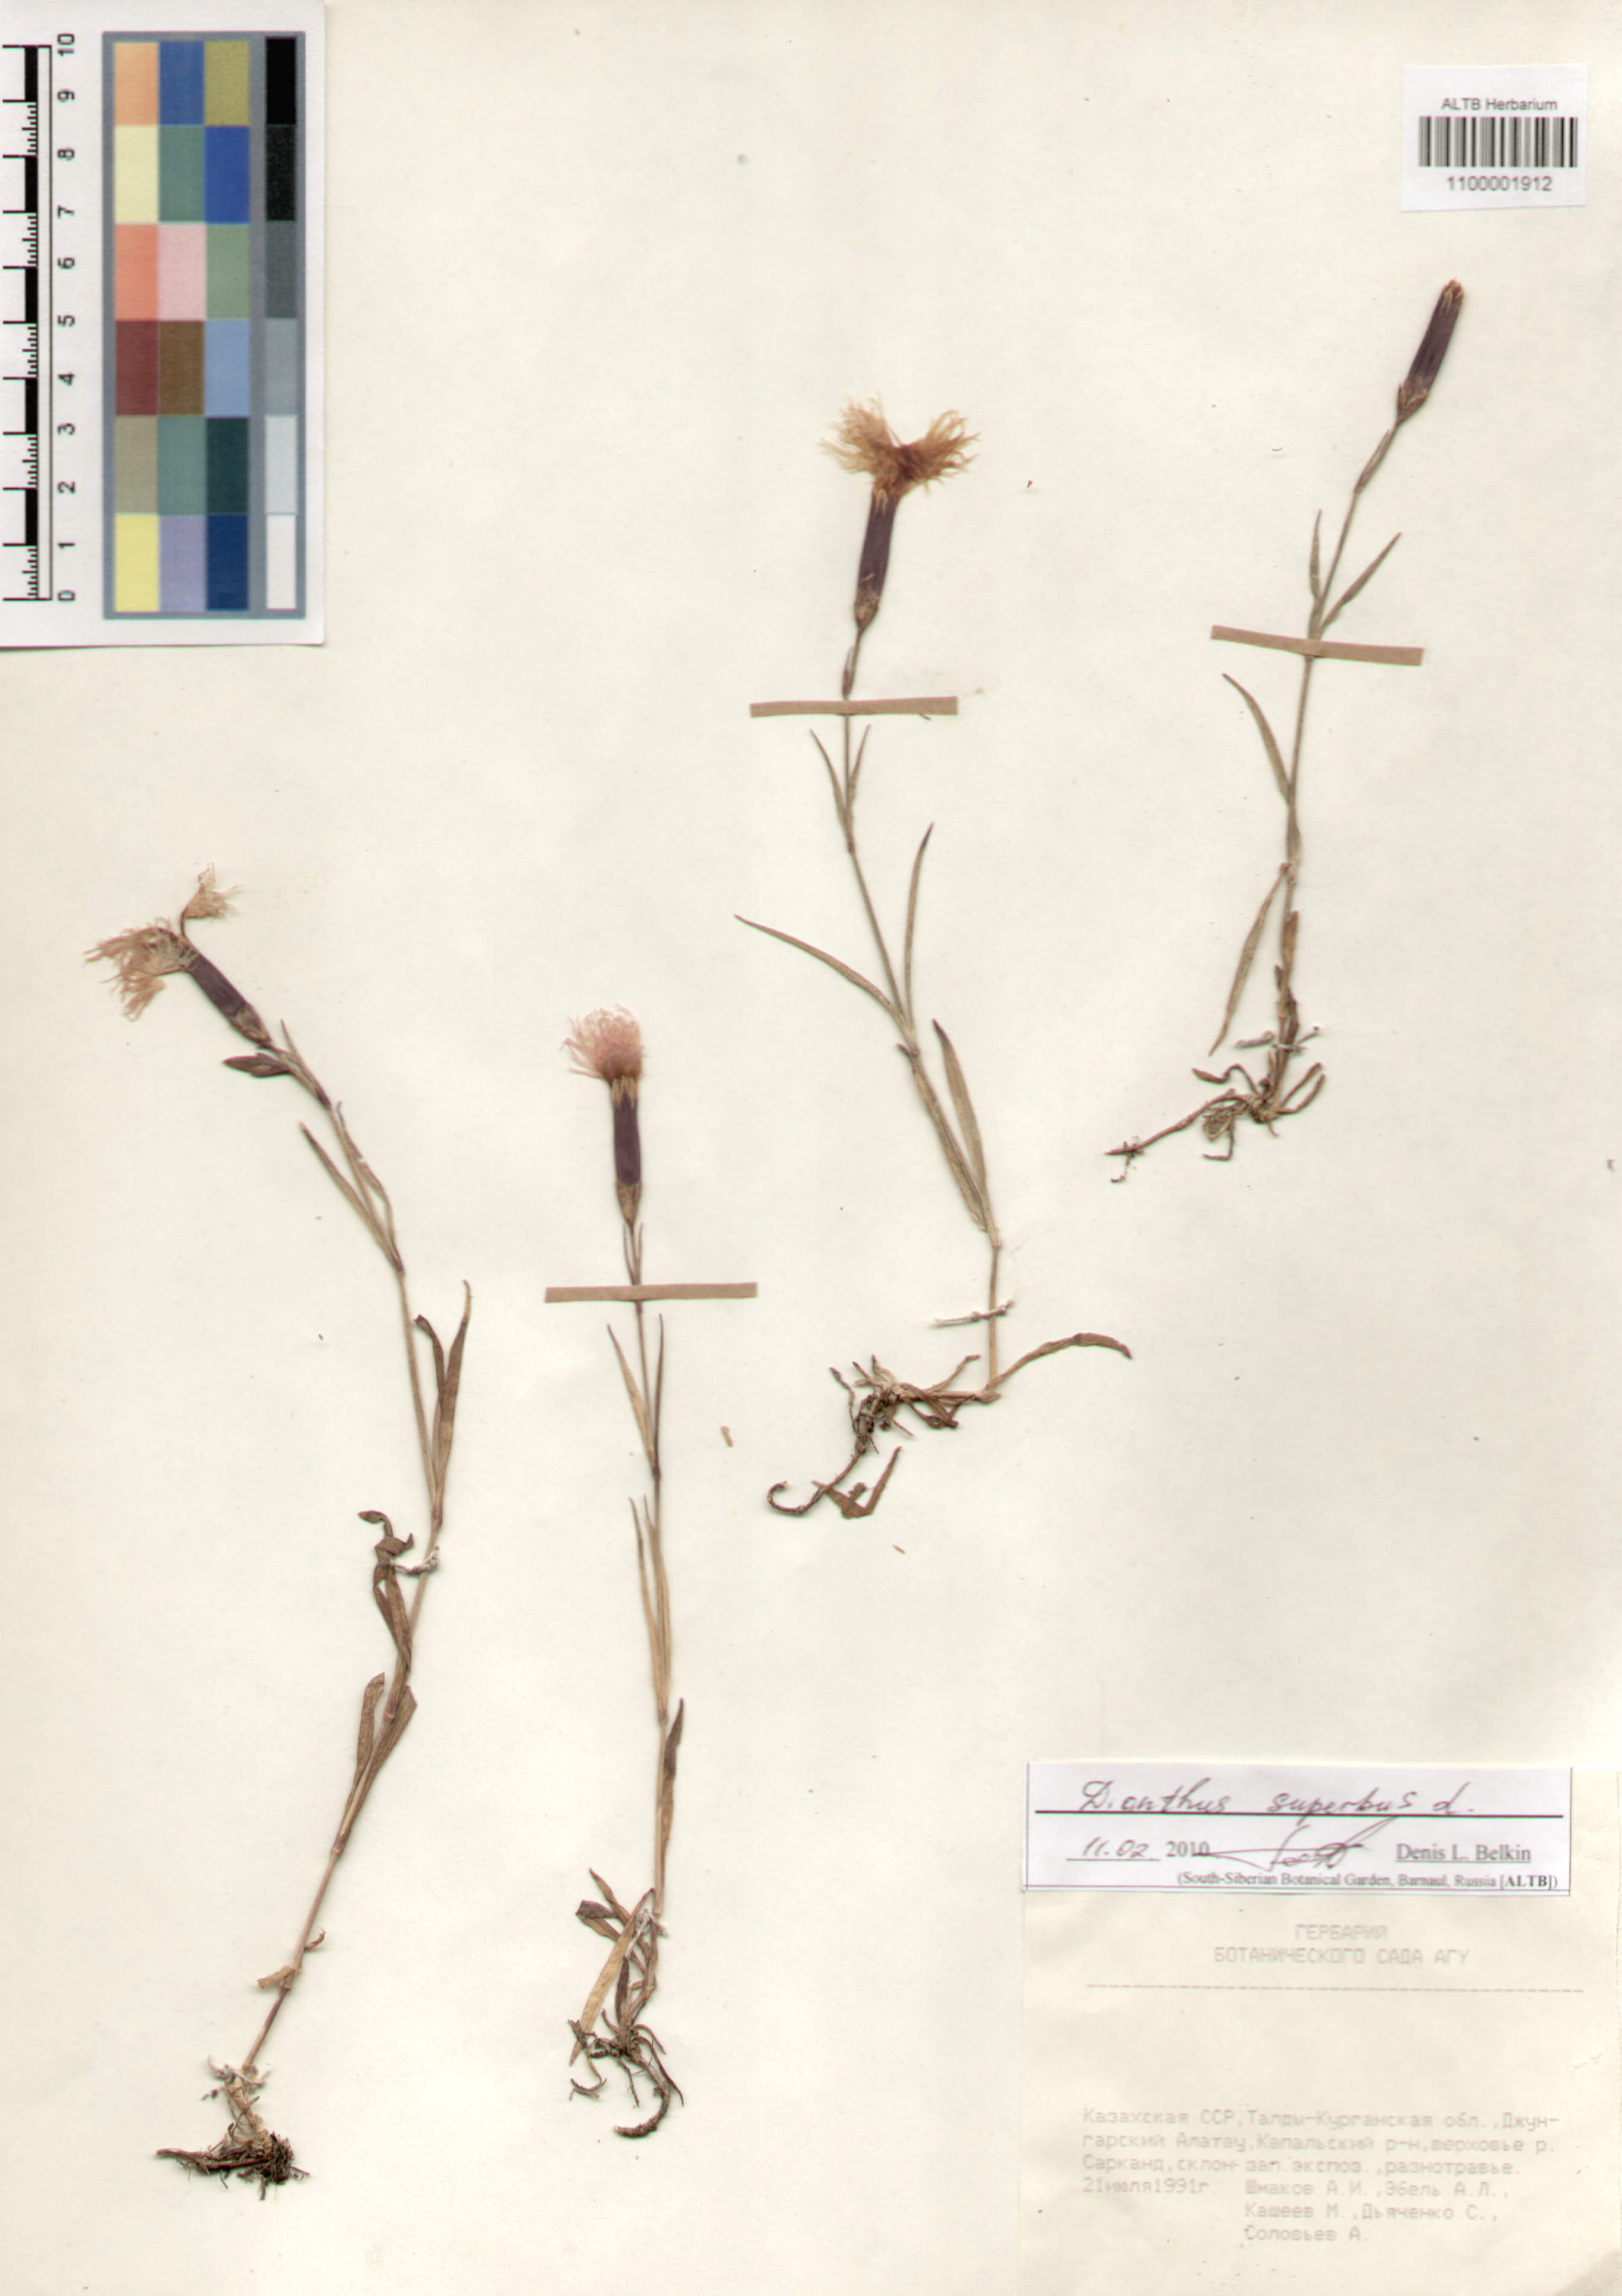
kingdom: Plantae
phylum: Tracheophyta
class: Magnoliopsida
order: Caryophyllales
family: Caryophyllaceae
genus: Dianthus
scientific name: Dianthus superbus
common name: Fringed pink
